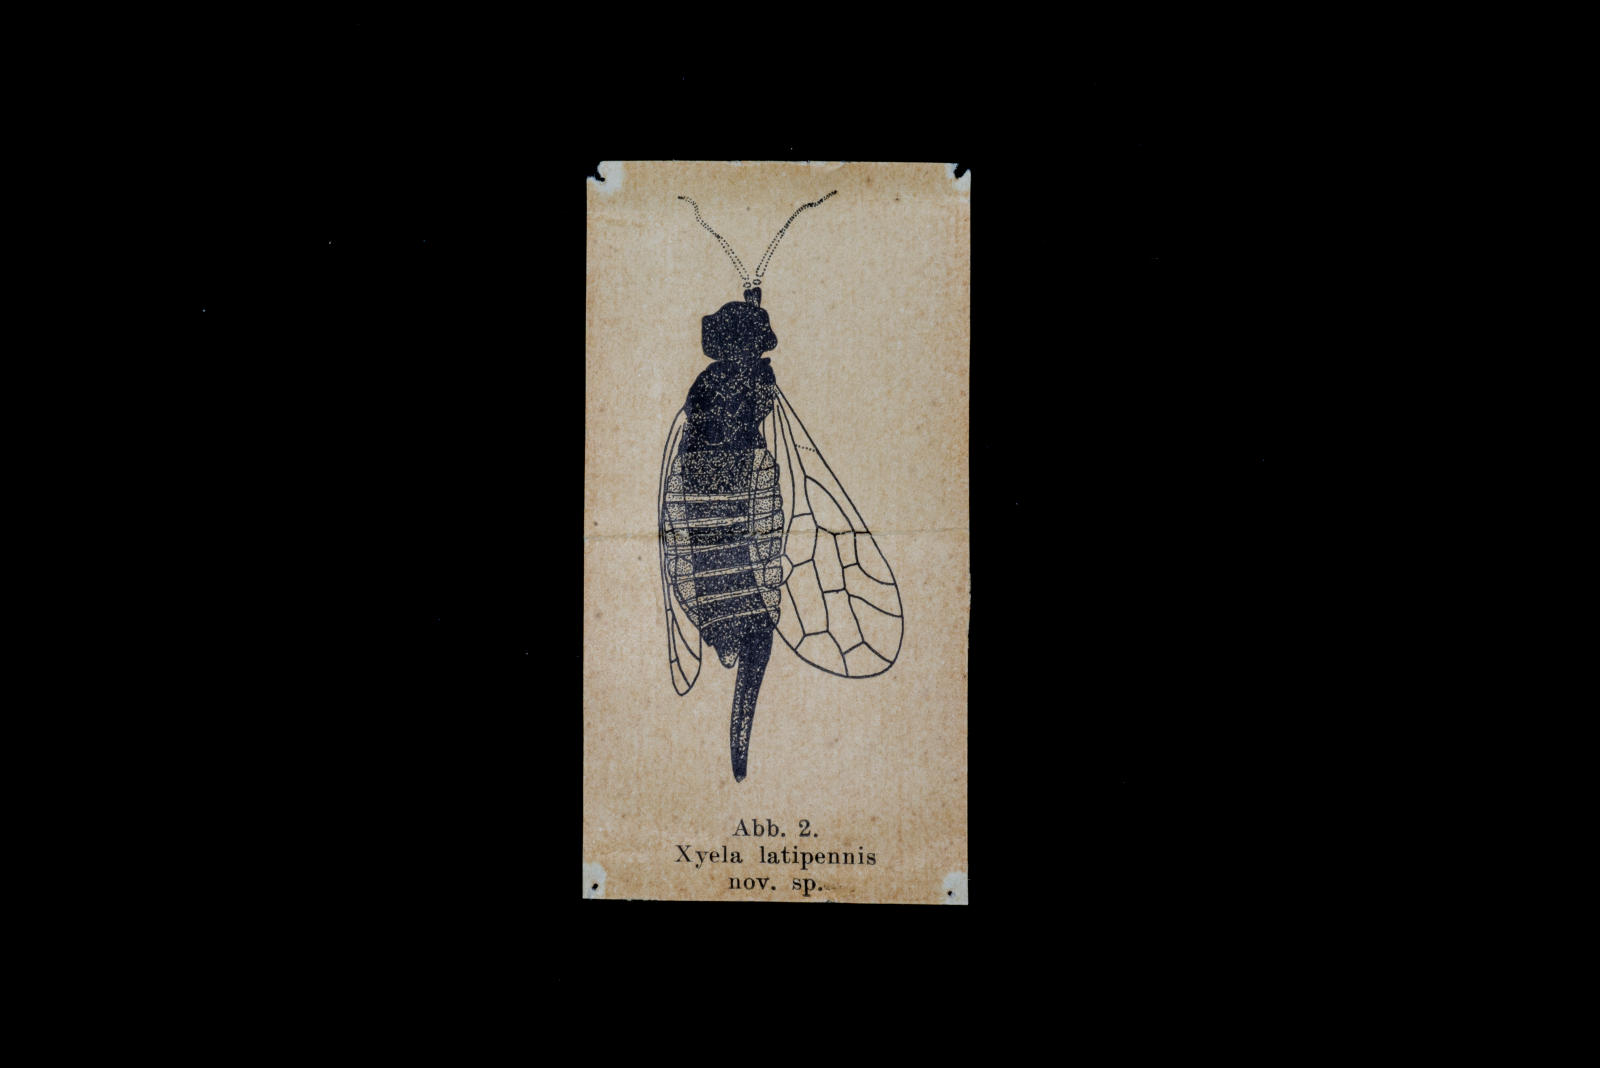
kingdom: Animalia
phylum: Arthropoda
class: Insecta
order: Hymenoptera
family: Xyelidae
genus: Xyela
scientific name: Xyela latipennis
